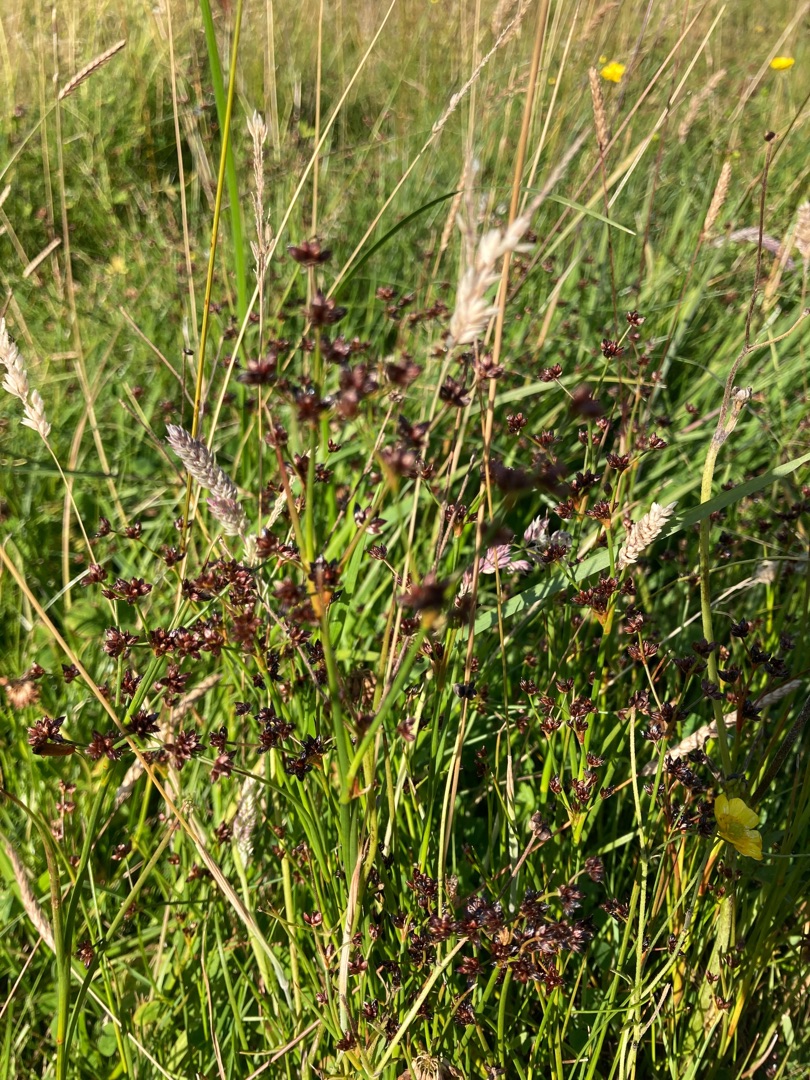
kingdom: Plantae
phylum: Tracheophyta
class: Liliopsida
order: Poales
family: Juncaceae
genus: Juncus
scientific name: Juncus articulatus
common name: Glanskapslet siv
